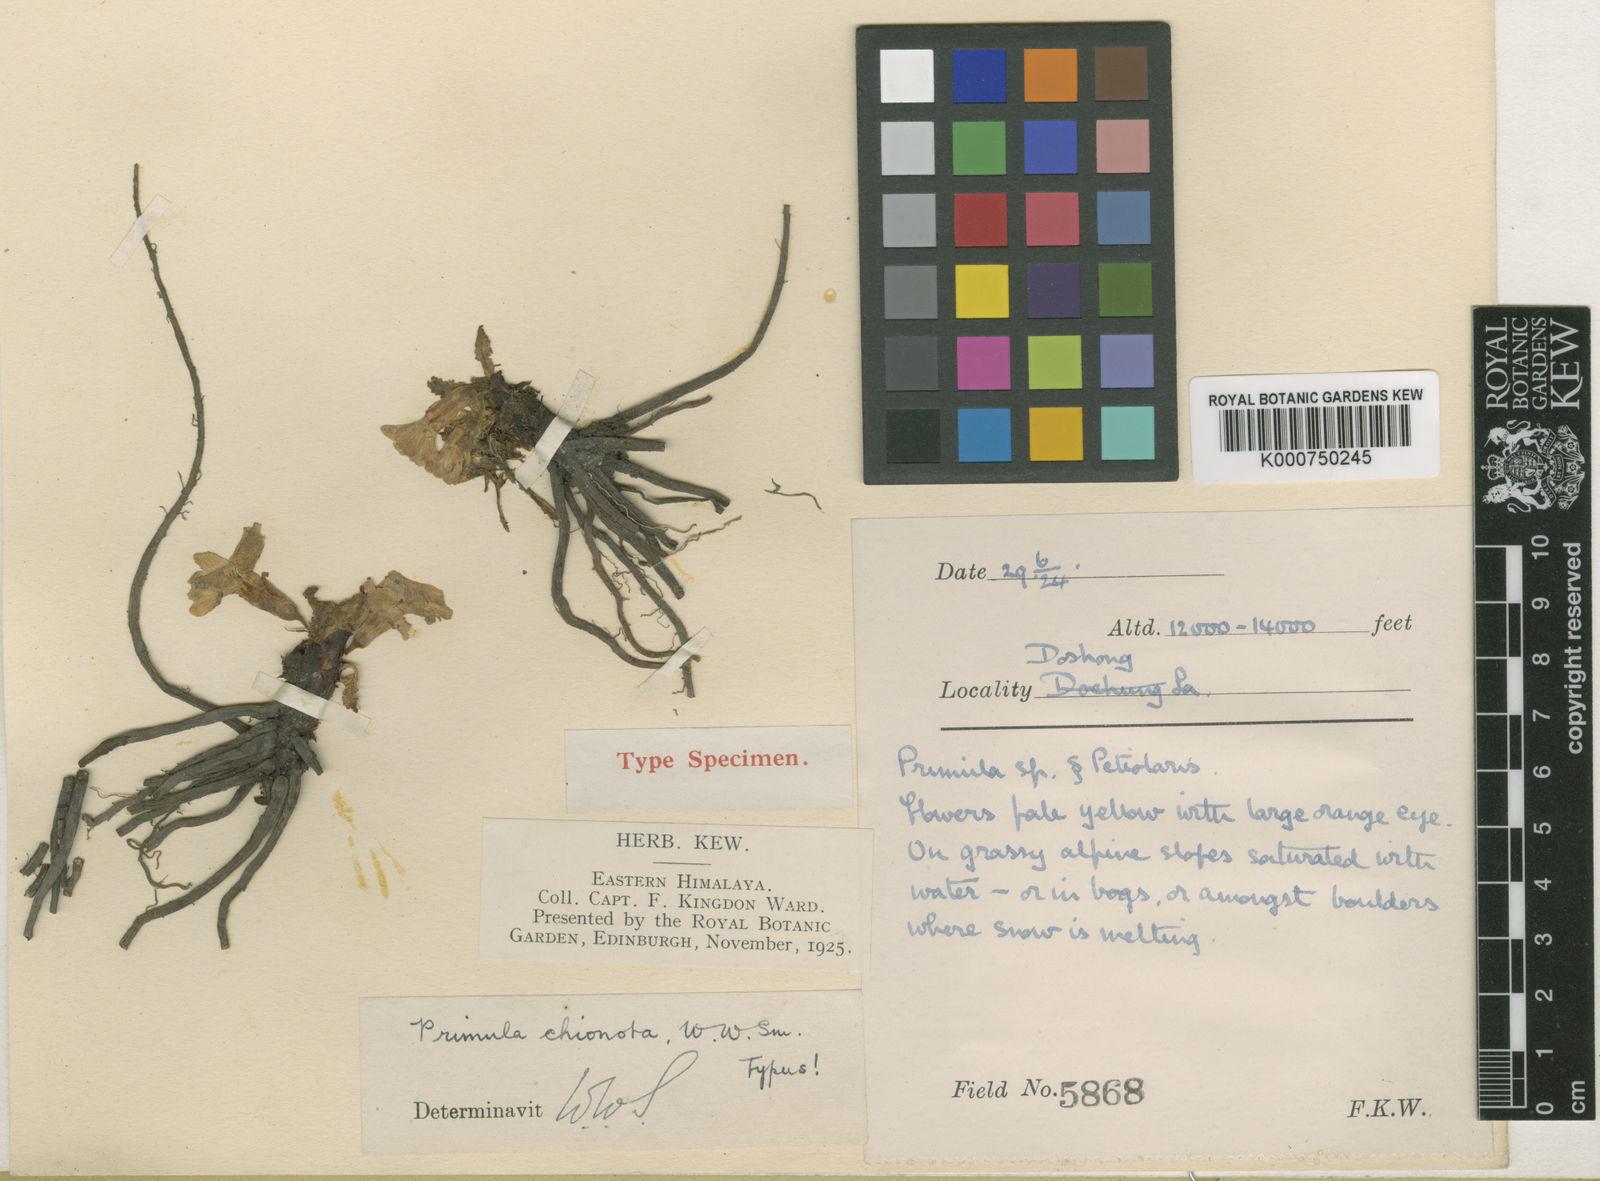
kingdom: Plantae
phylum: Tracheophyta
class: Magnoliopsida
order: Ericales
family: Primulaceae
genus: Primula
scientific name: Primula
